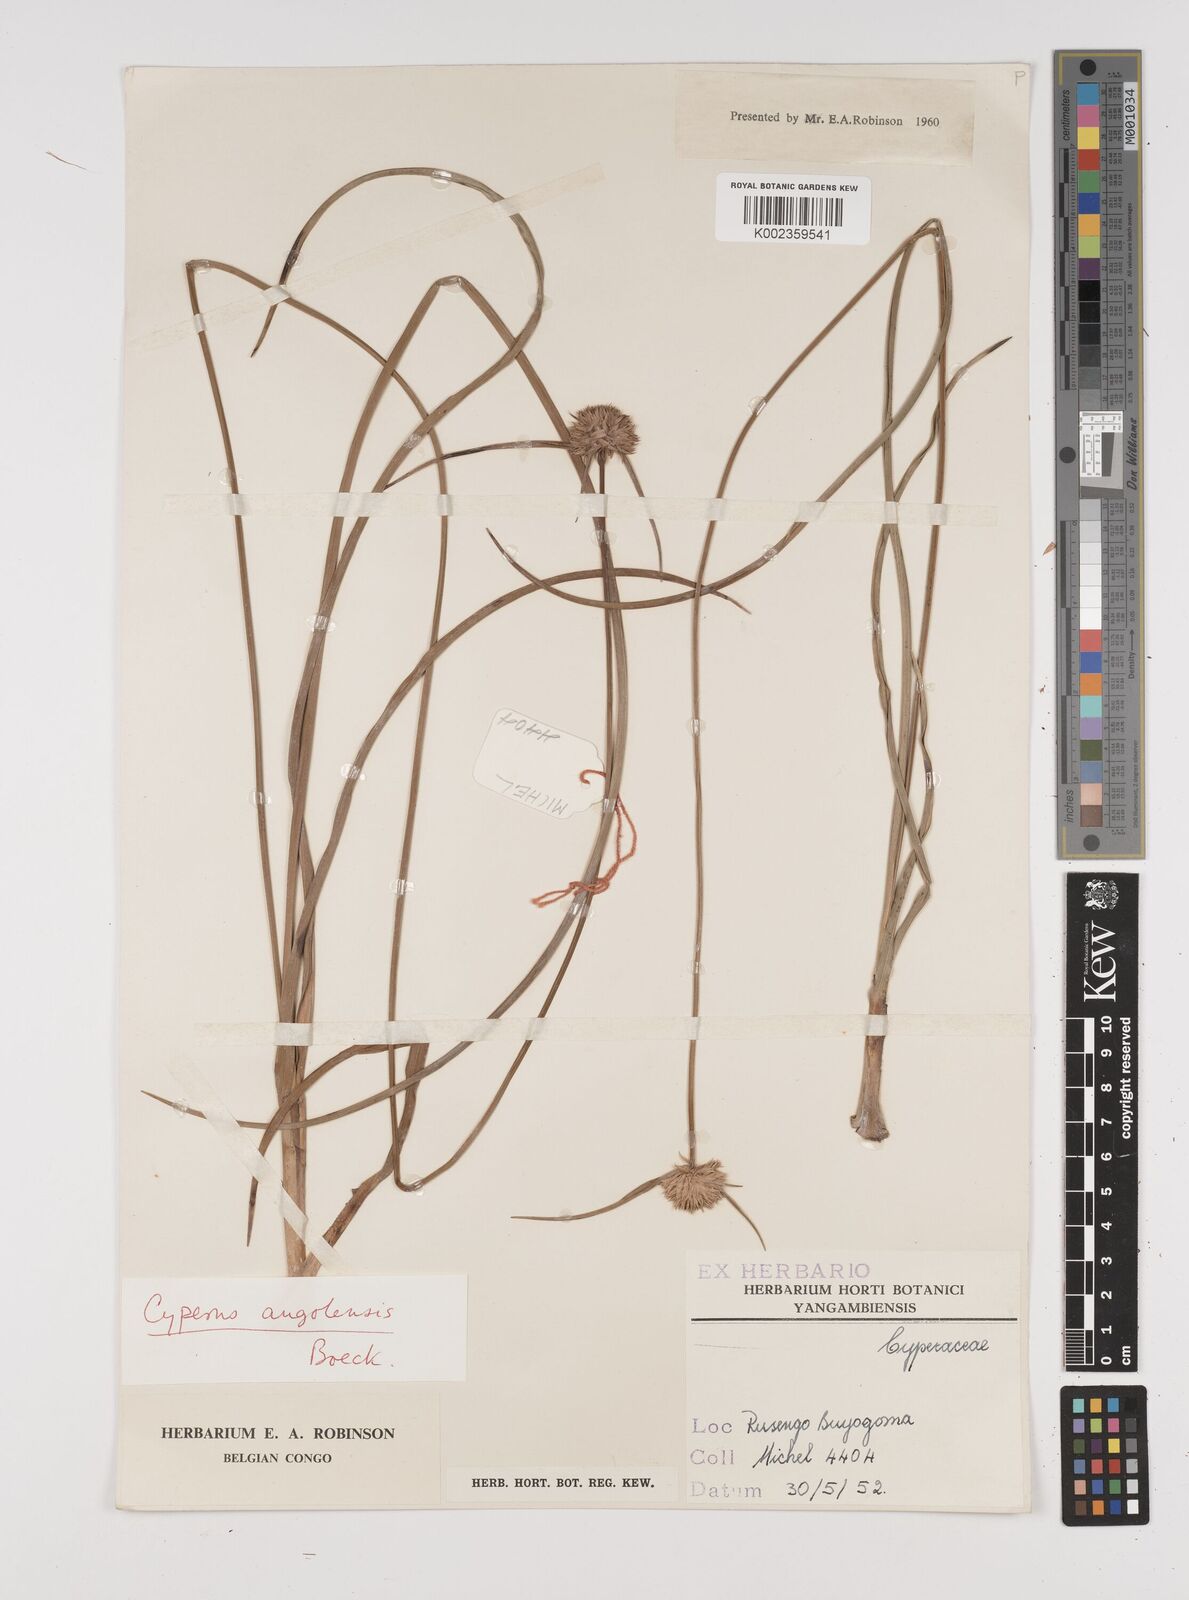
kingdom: Plantae
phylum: Tracheophyta
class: Liliopsida
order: Poales
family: Cyperaceae
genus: Cyperus
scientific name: Cyperus angolensis
